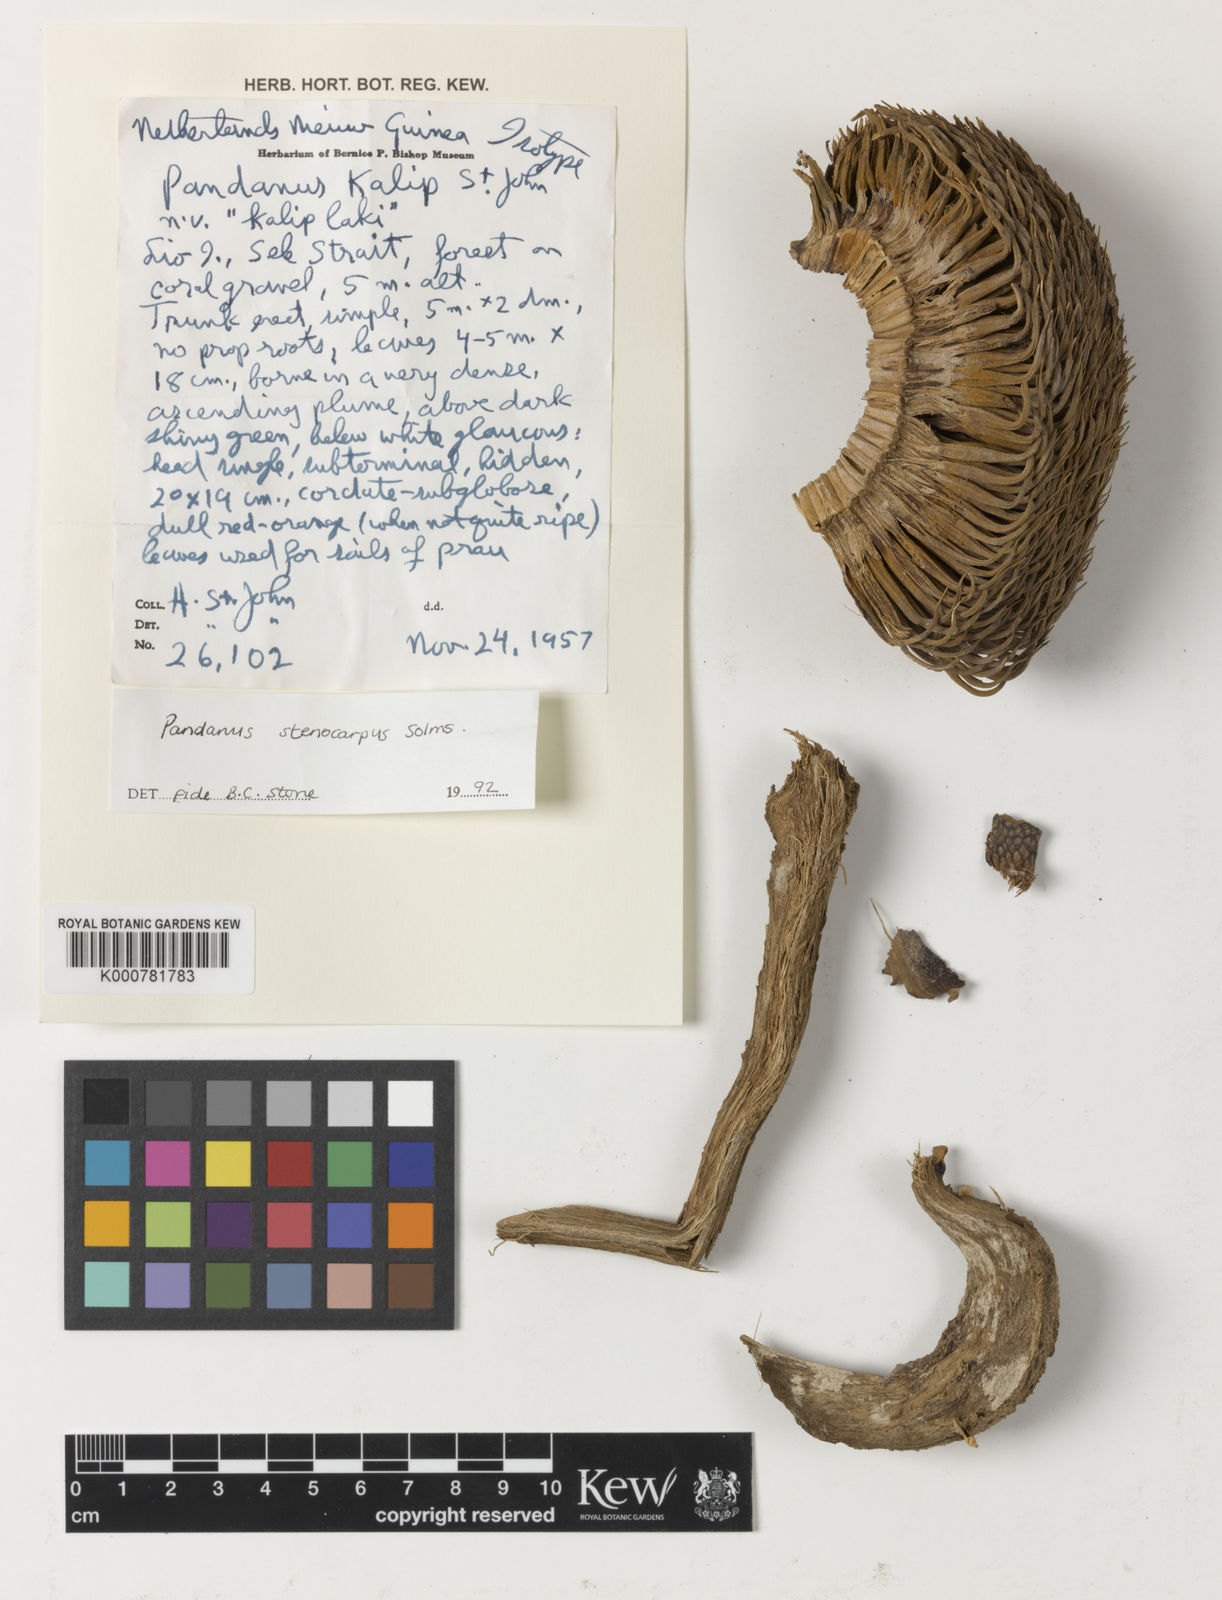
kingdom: Plantae
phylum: Tracheophyta
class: Liliopsida
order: Pandanales
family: Pandanaceae
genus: Benstonea
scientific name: Benstonea stenocarpa
